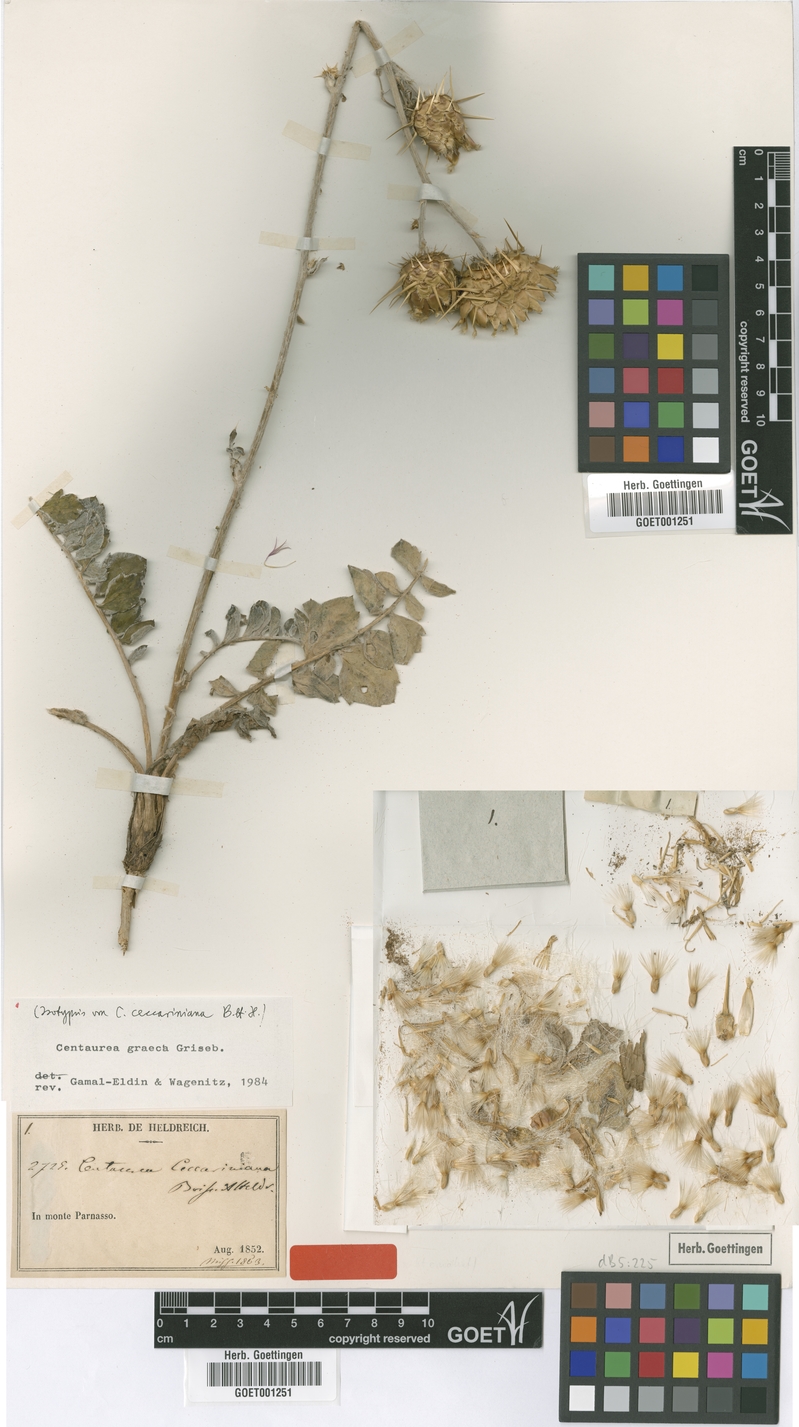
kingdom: Plantae
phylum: Tracheophyta
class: Magnoliopsida
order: Asterales
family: Asteraceae
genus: Centaurea
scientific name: Centaurea graeca
